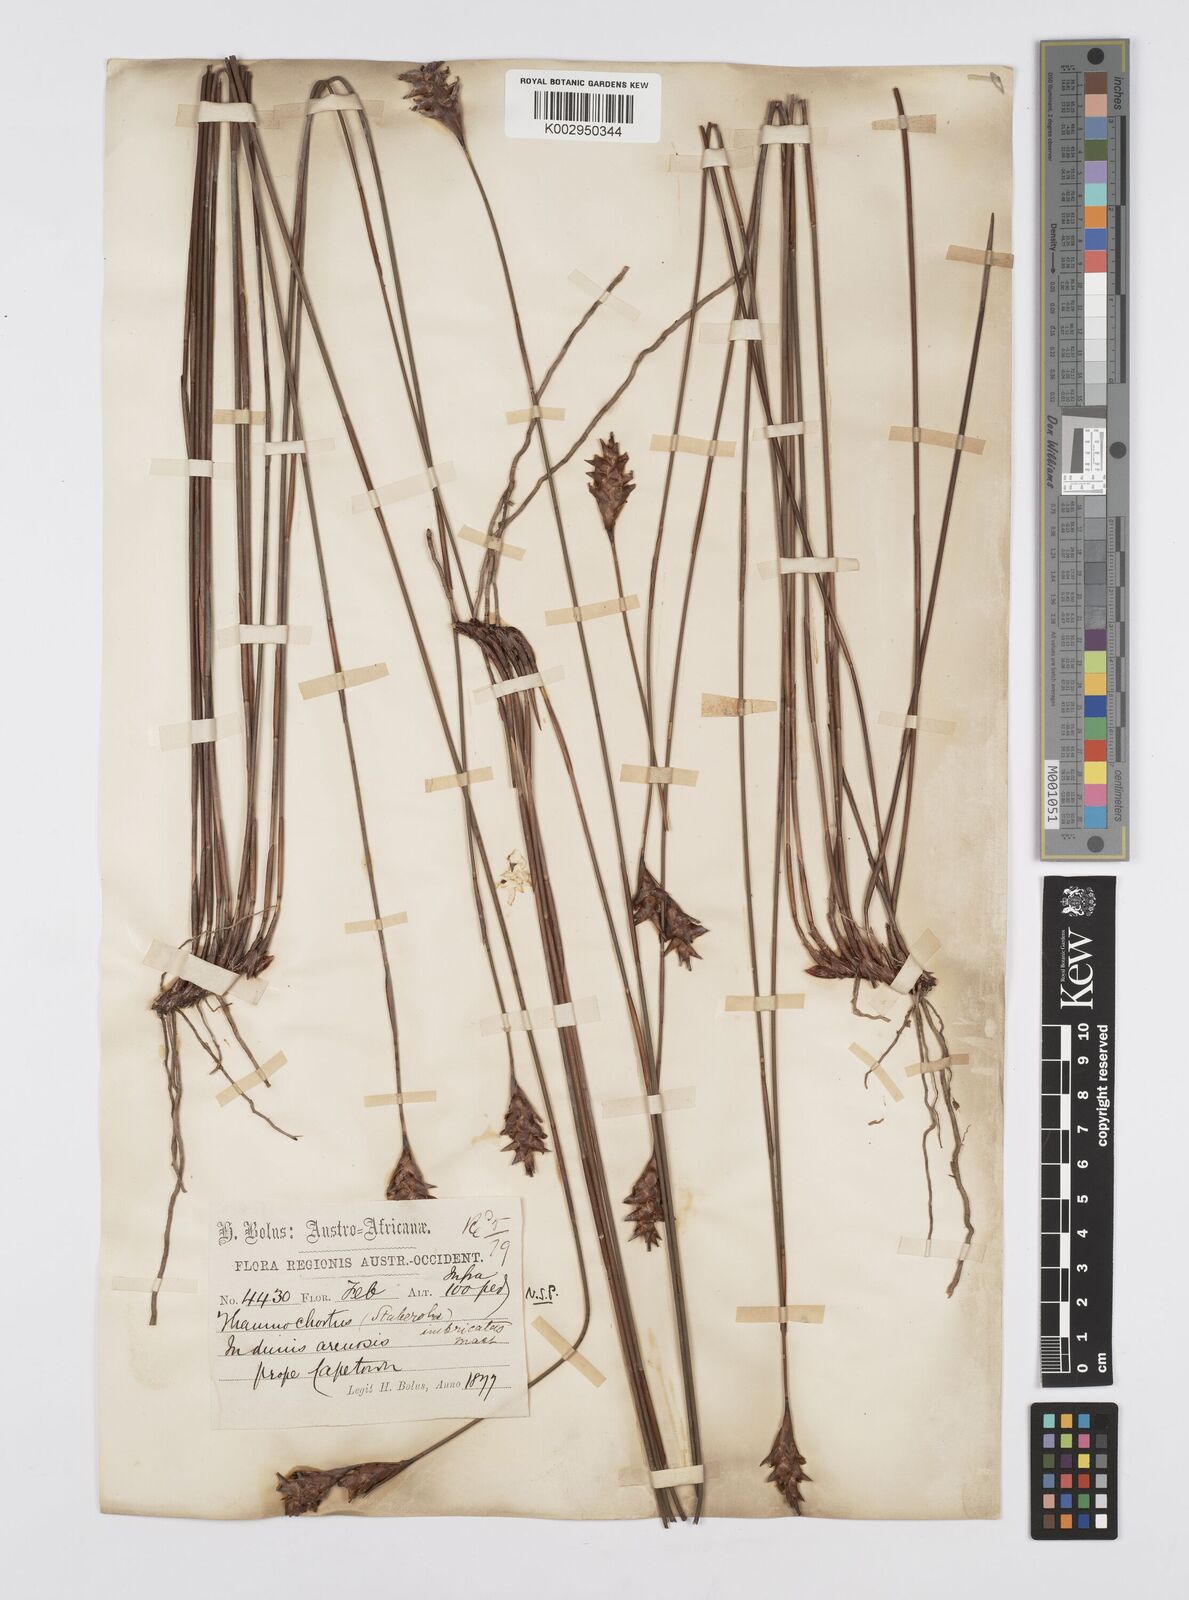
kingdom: Plantae
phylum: Tracheophyta
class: Liliopsida
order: Poales
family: Restionaceae
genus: Staberoha
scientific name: Staberoha distachyos
